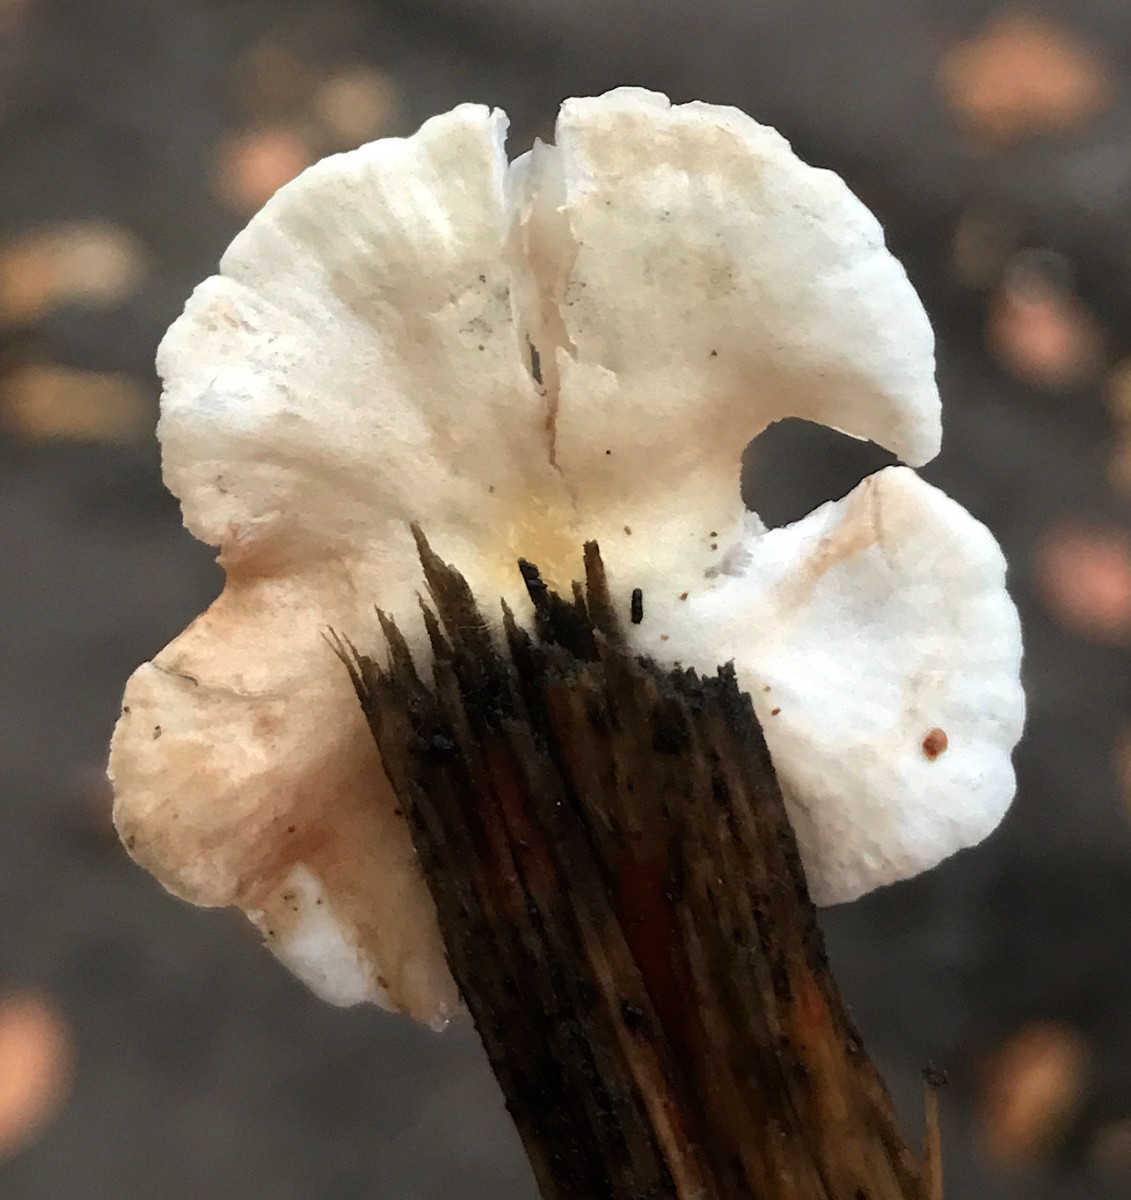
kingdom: Fungi
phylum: Basidiomycota
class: Agaricomycetes
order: Agaricales
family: Crepidotaceae
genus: Crepidotus
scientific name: Crepidotus
